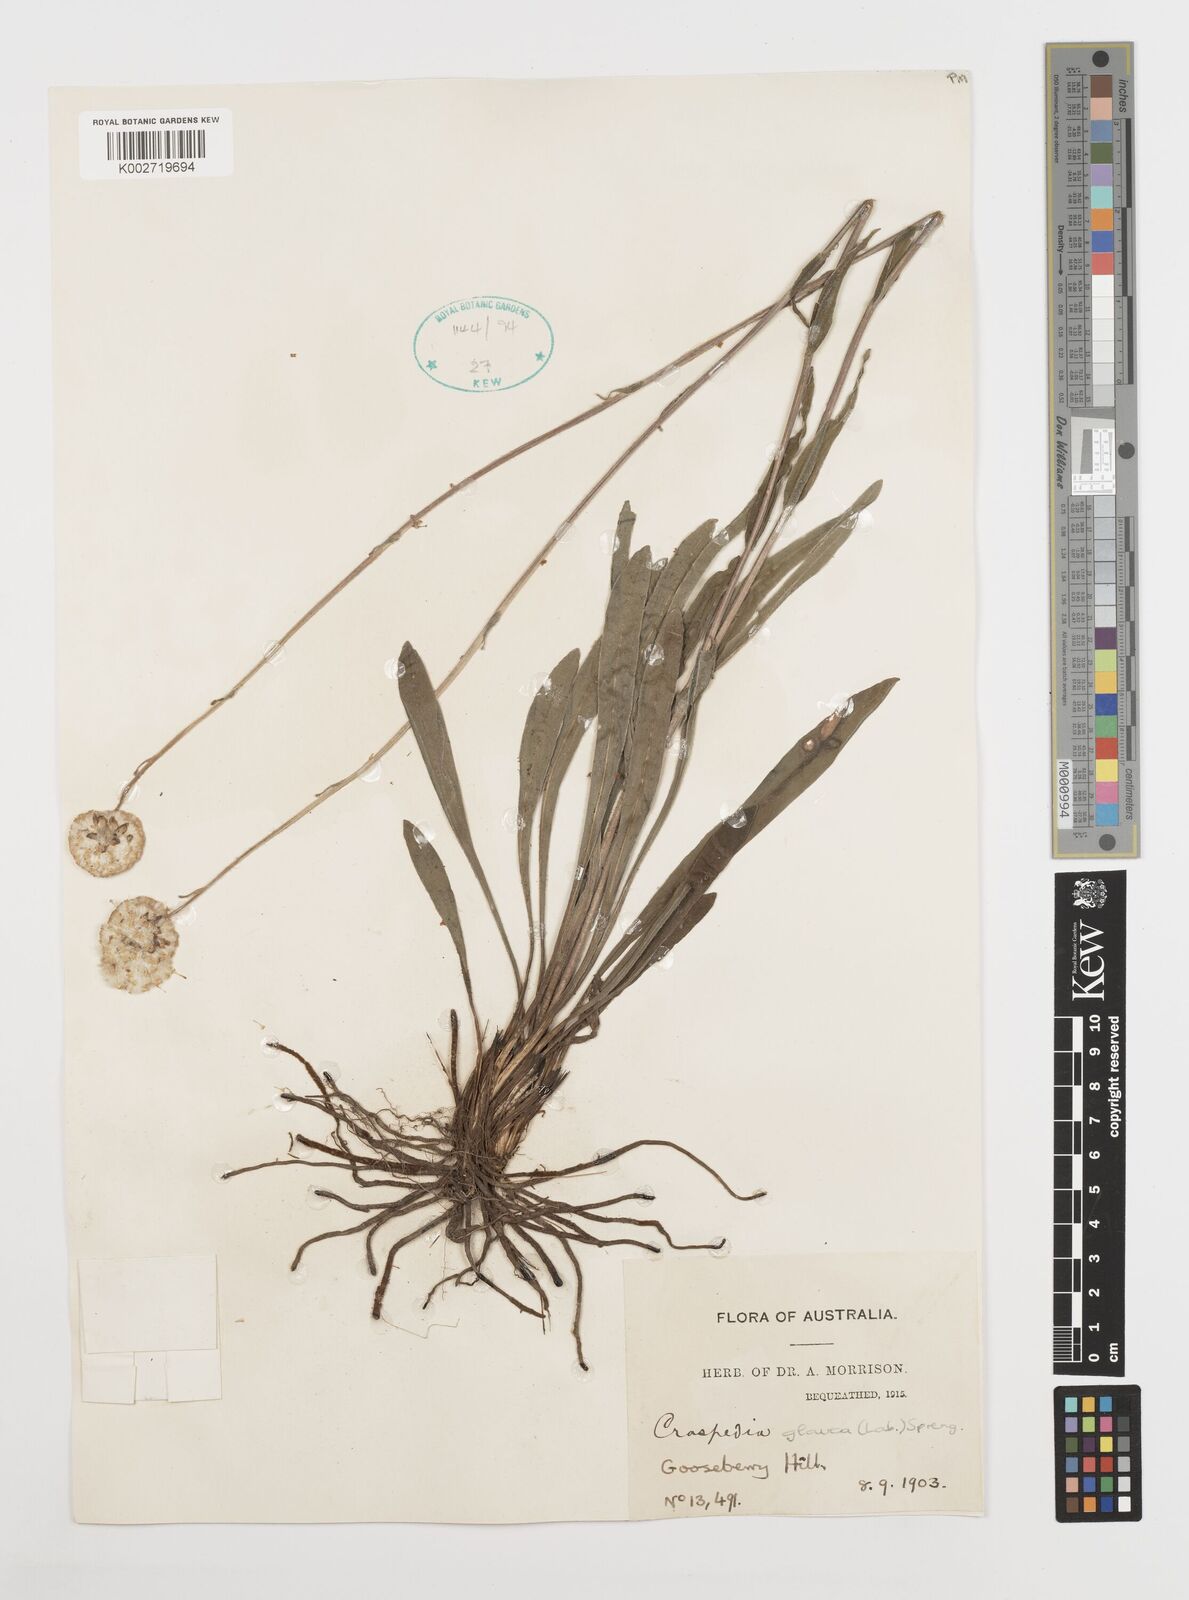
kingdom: Plantae
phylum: Tracheophyta
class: Magnoliopsida
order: Asterales
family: Asteraceae
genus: Craspedia
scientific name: Craspedia glauca
